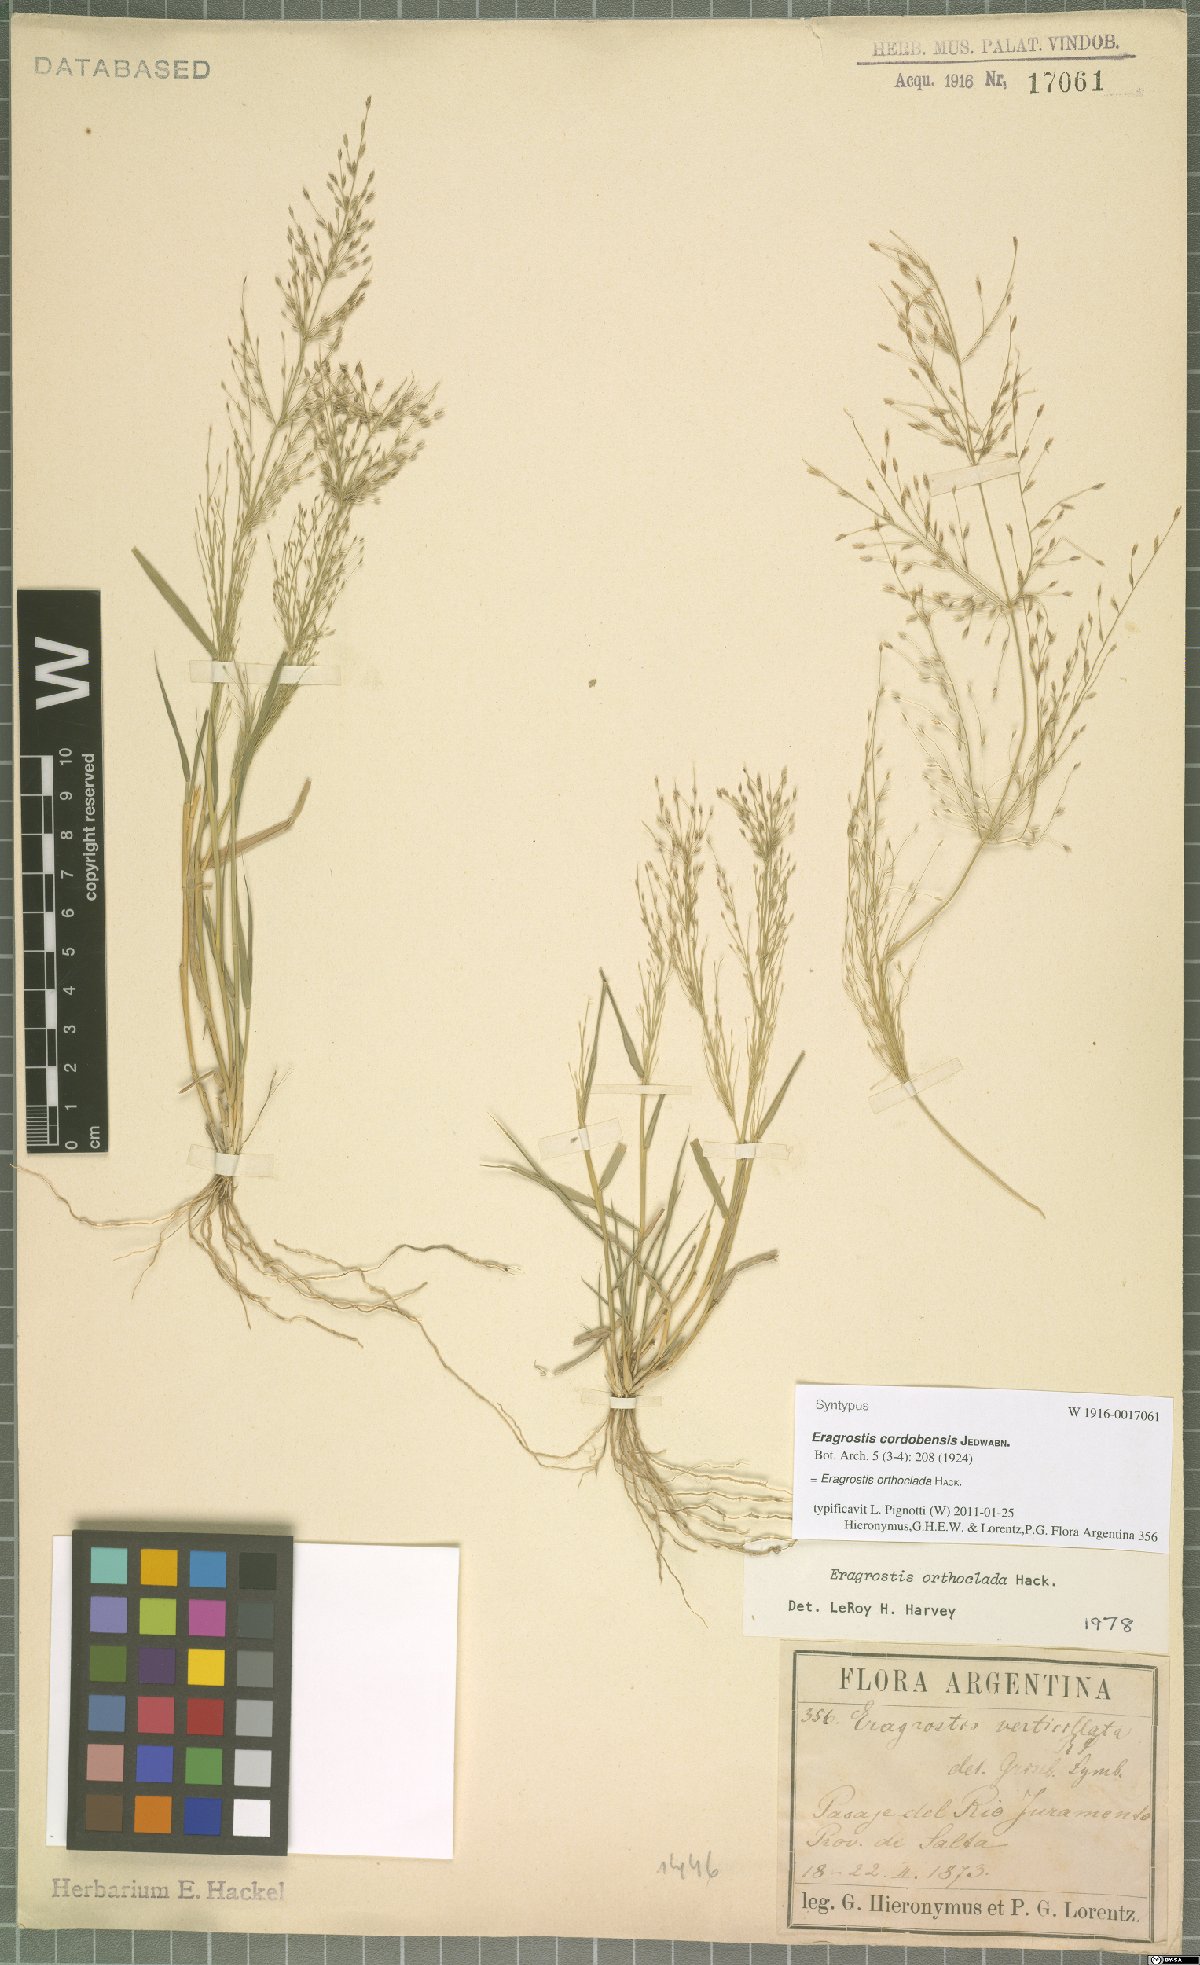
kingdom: Plantae
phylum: Tracheophyta
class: Liliopsida
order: Poales
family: Poaceae
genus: Eragrostis
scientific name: Eragrostis orthoclada
